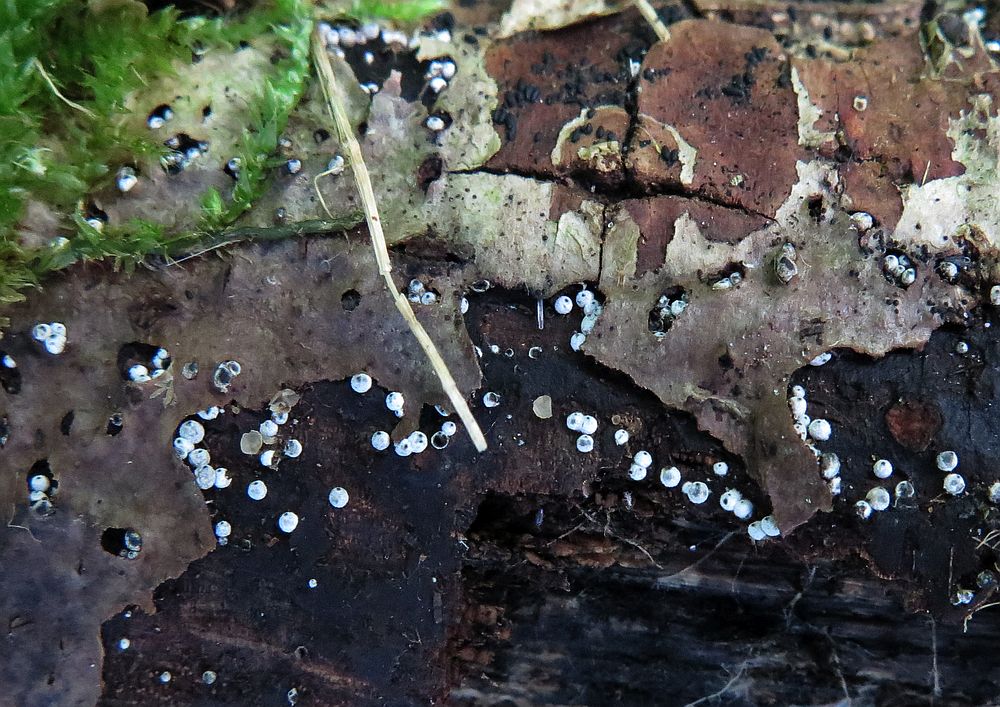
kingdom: Fungi
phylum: Ascomycota
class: Sordariomycetes
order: Sordariales
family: Lasiosphaeriaceae
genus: Lasiosphaeria
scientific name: Lasiosphaeria ovina
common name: fåre-kernesvamp
